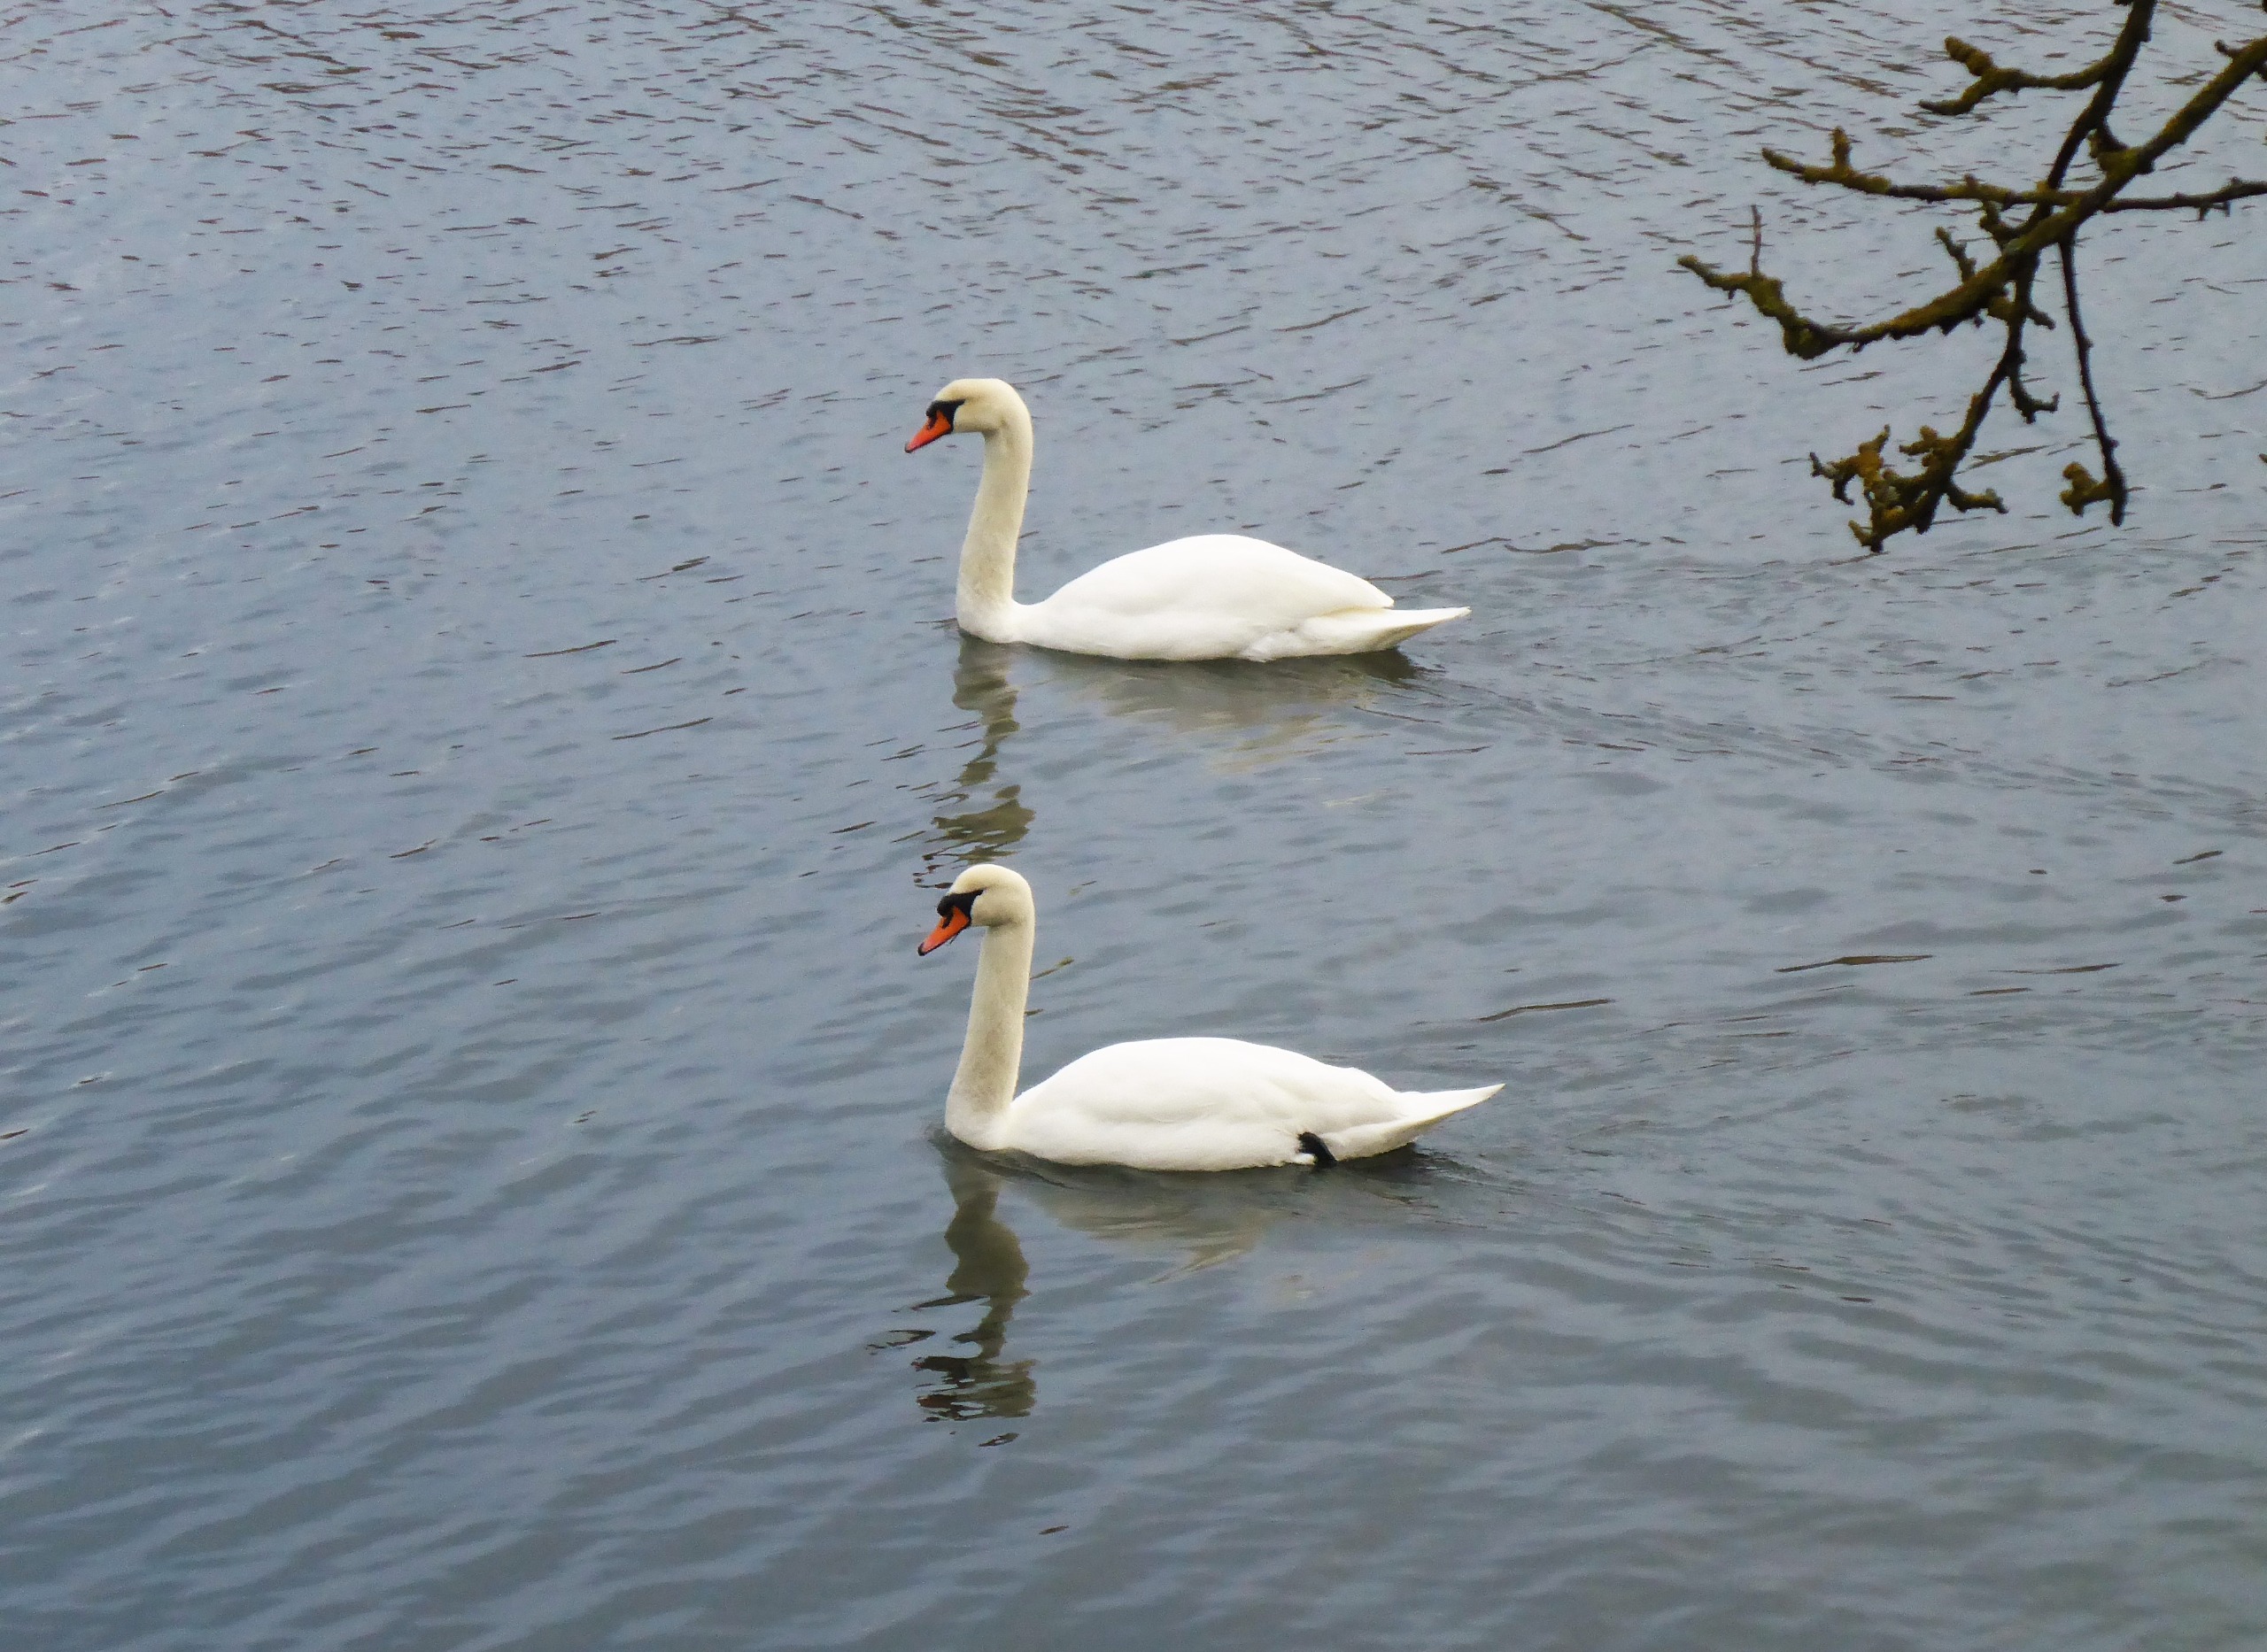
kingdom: Animalia
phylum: Chordata
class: Aves
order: Anseriformes
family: Anatidae
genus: Cygnus
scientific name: Cygnus olor
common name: Knopsvane
